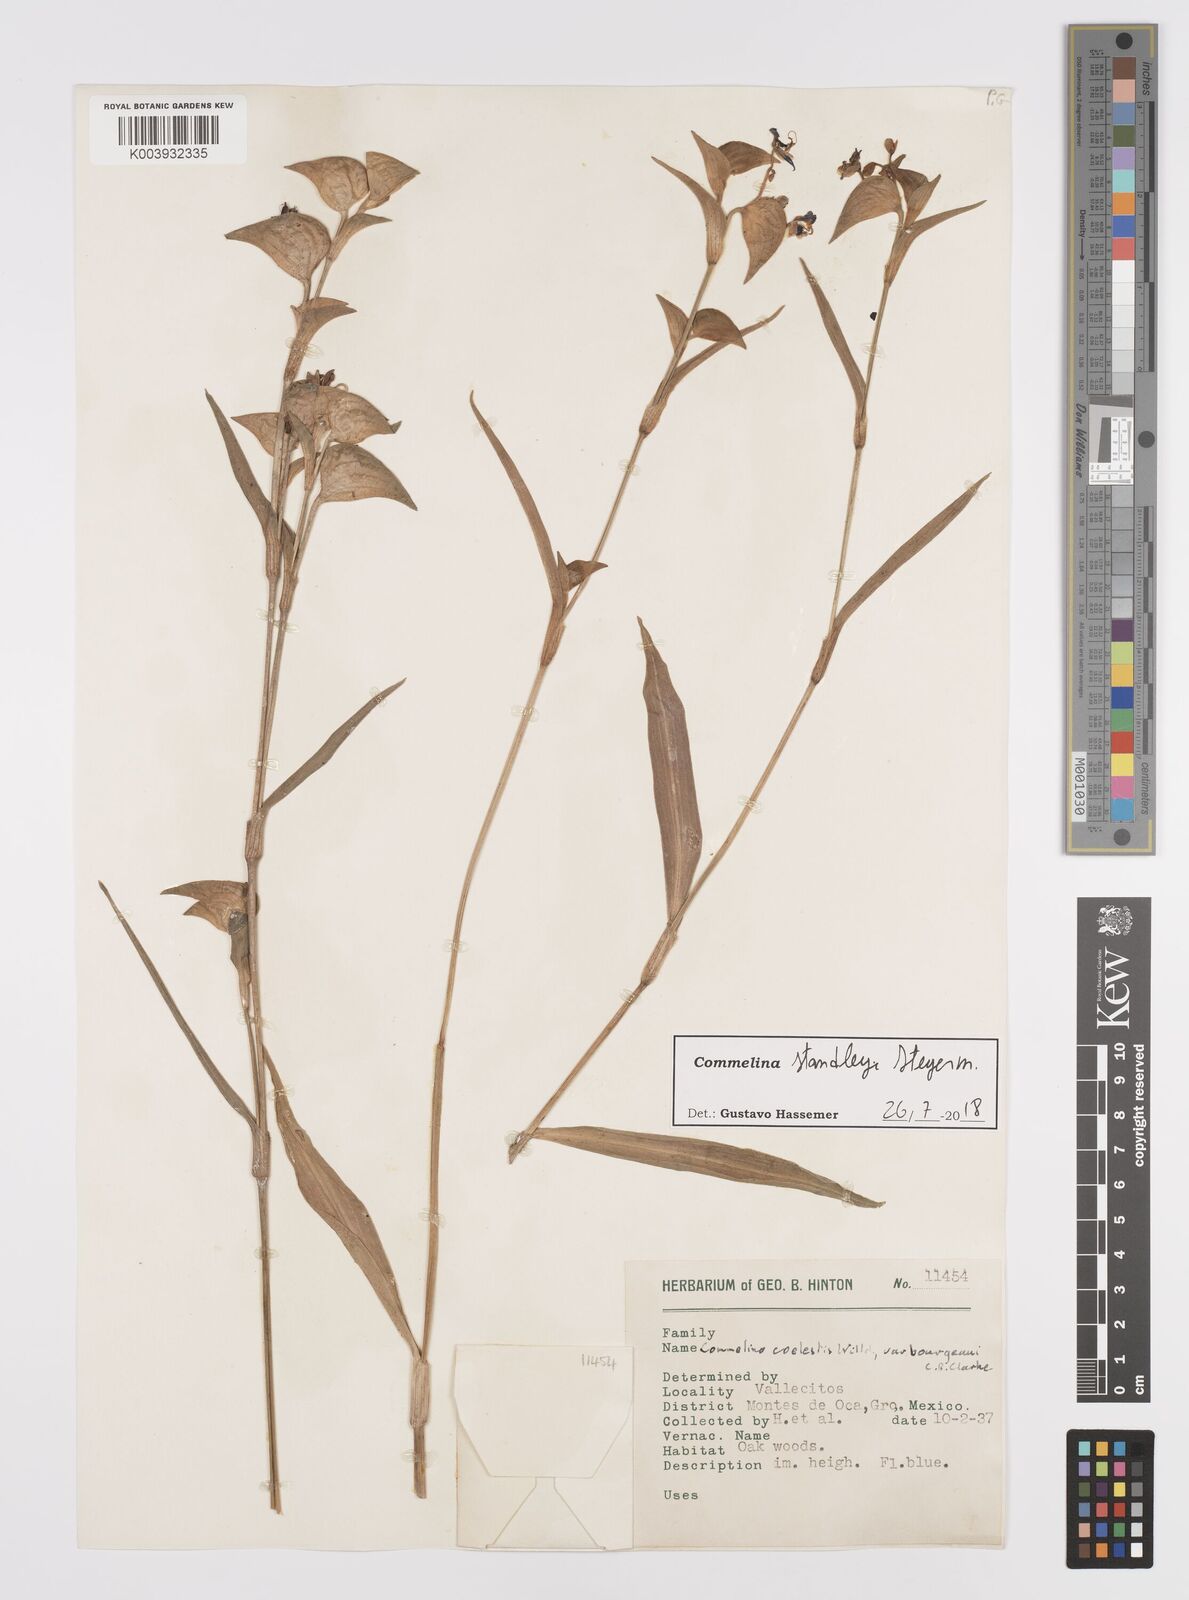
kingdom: Plantae
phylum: Tracheophyta
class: Liliopsida
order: Commelinales
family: Commelinaceae
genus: Commelina
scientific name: Commelina standleyi
